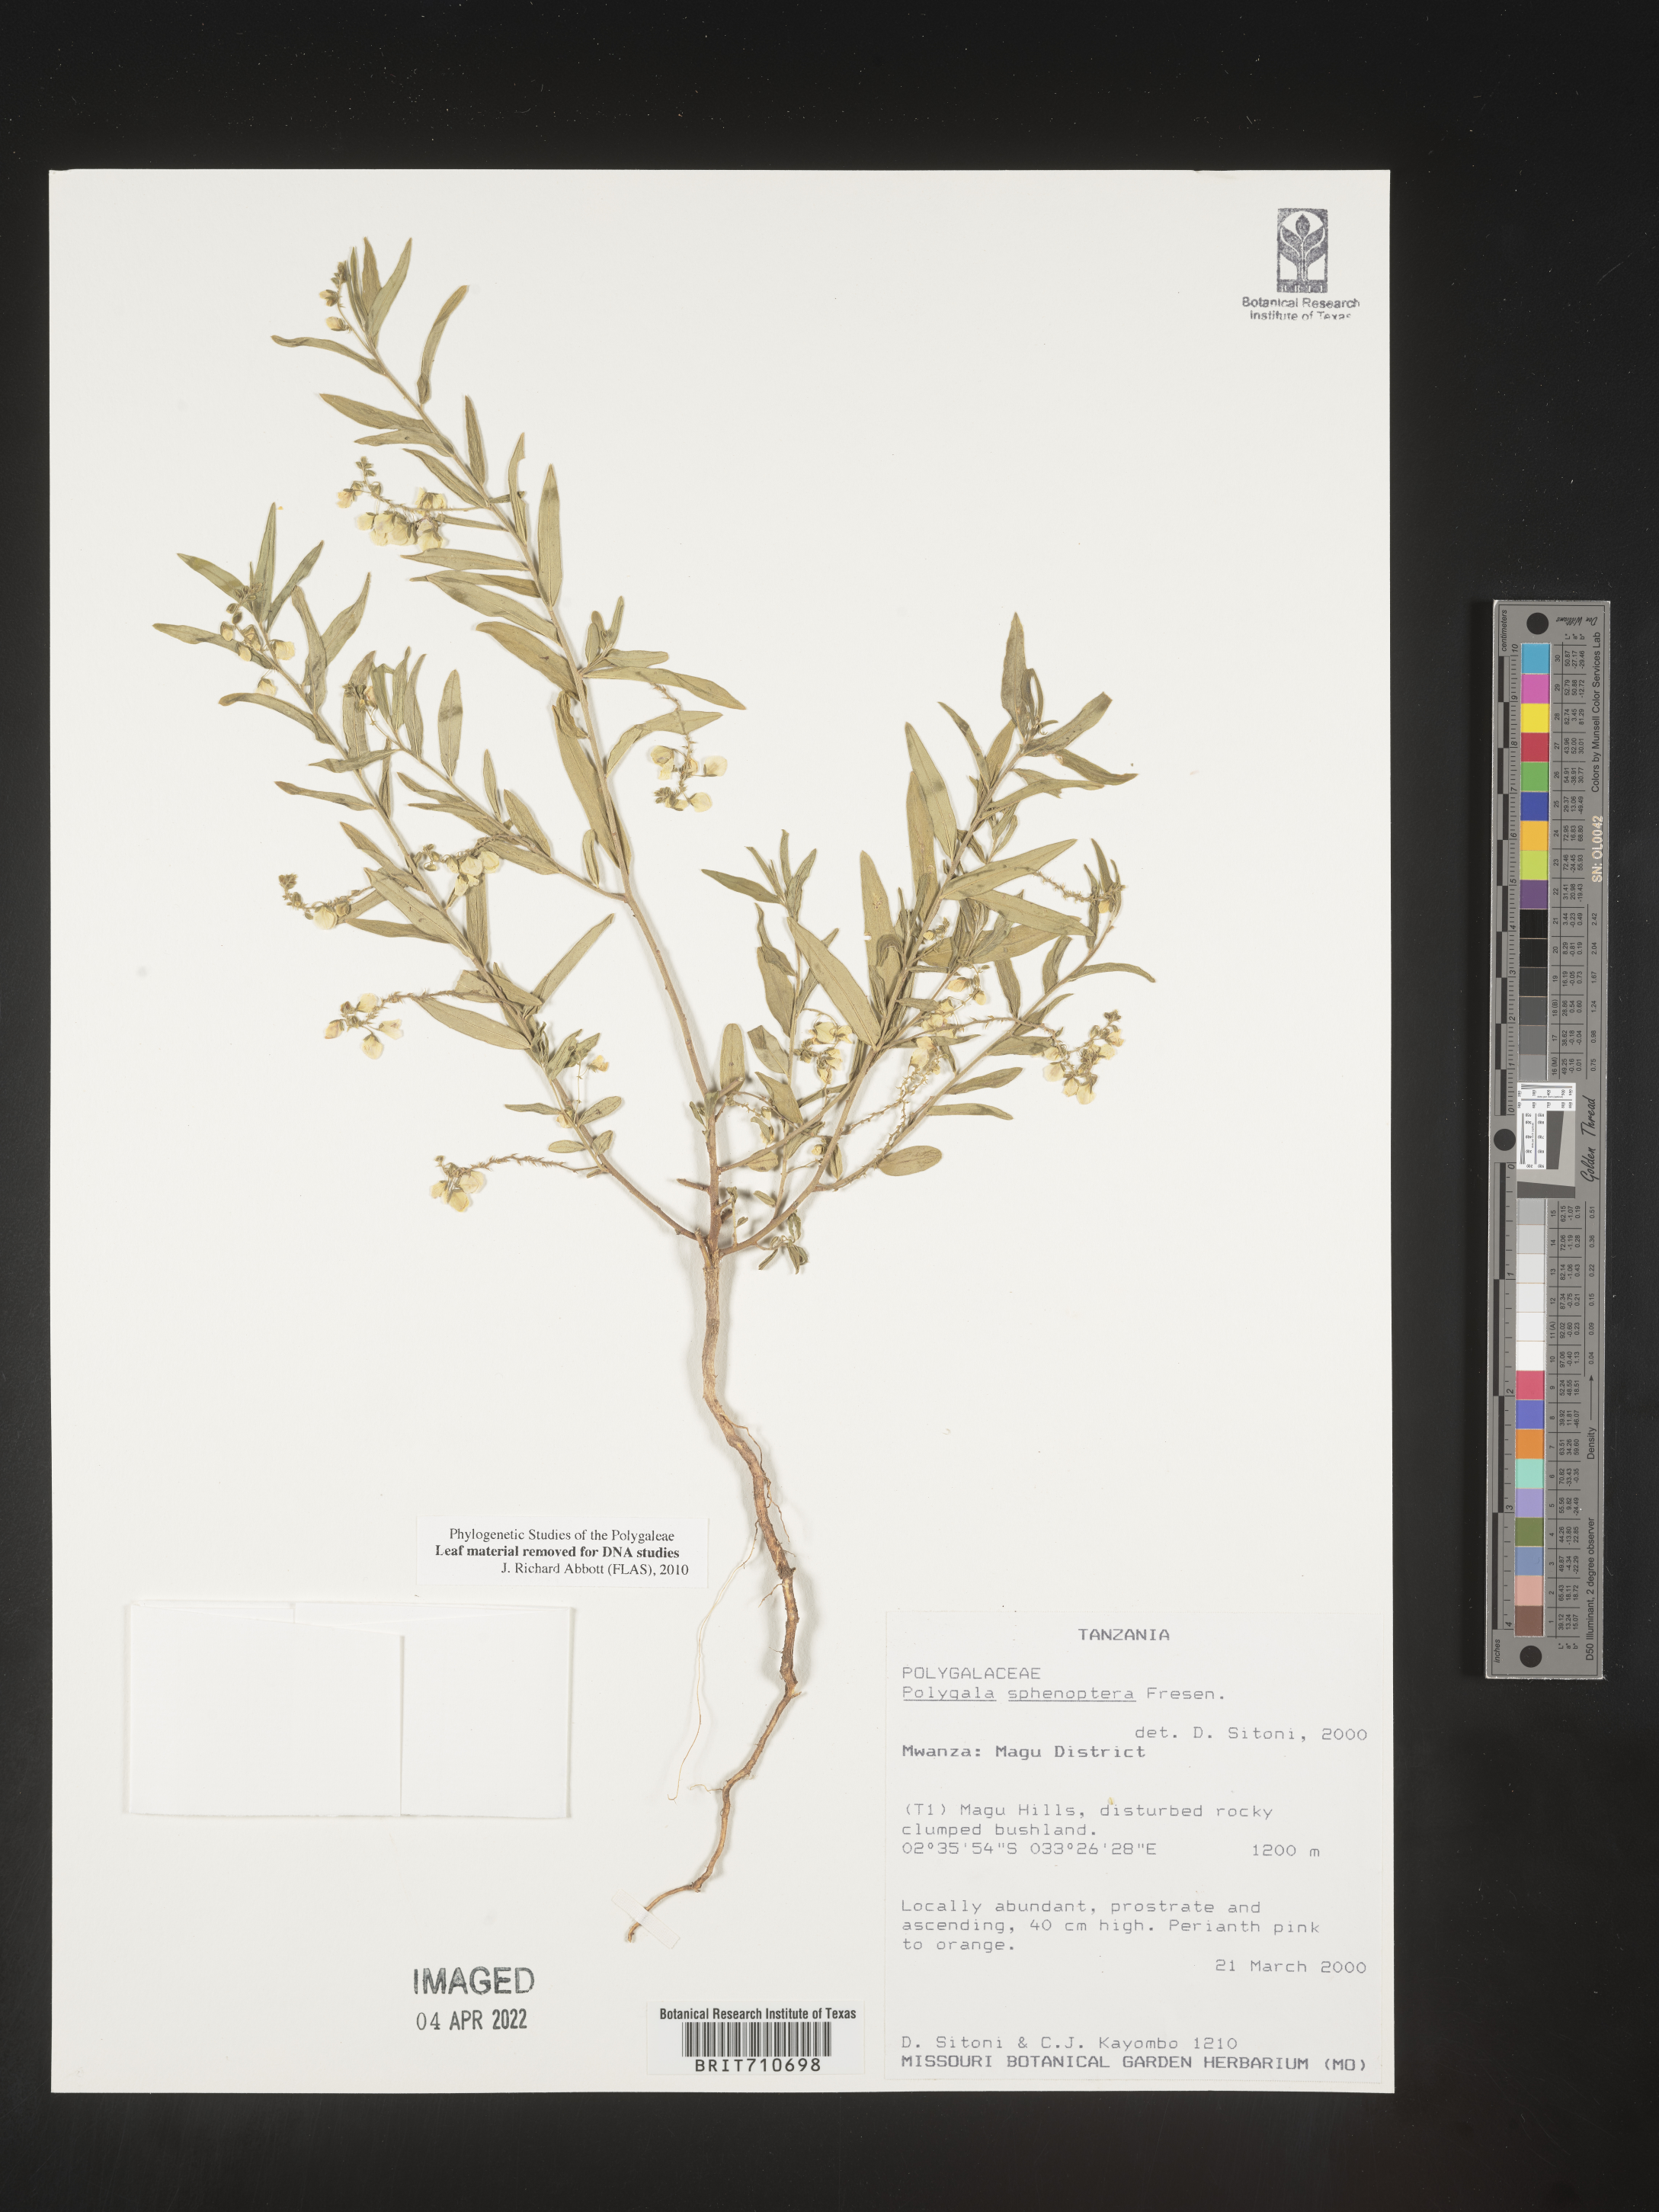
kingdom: Plantae
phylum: Tracheophyta
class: Magnoliopsida
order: Fabales
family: Polygalaceae
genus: Polygala
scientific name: Polygala
